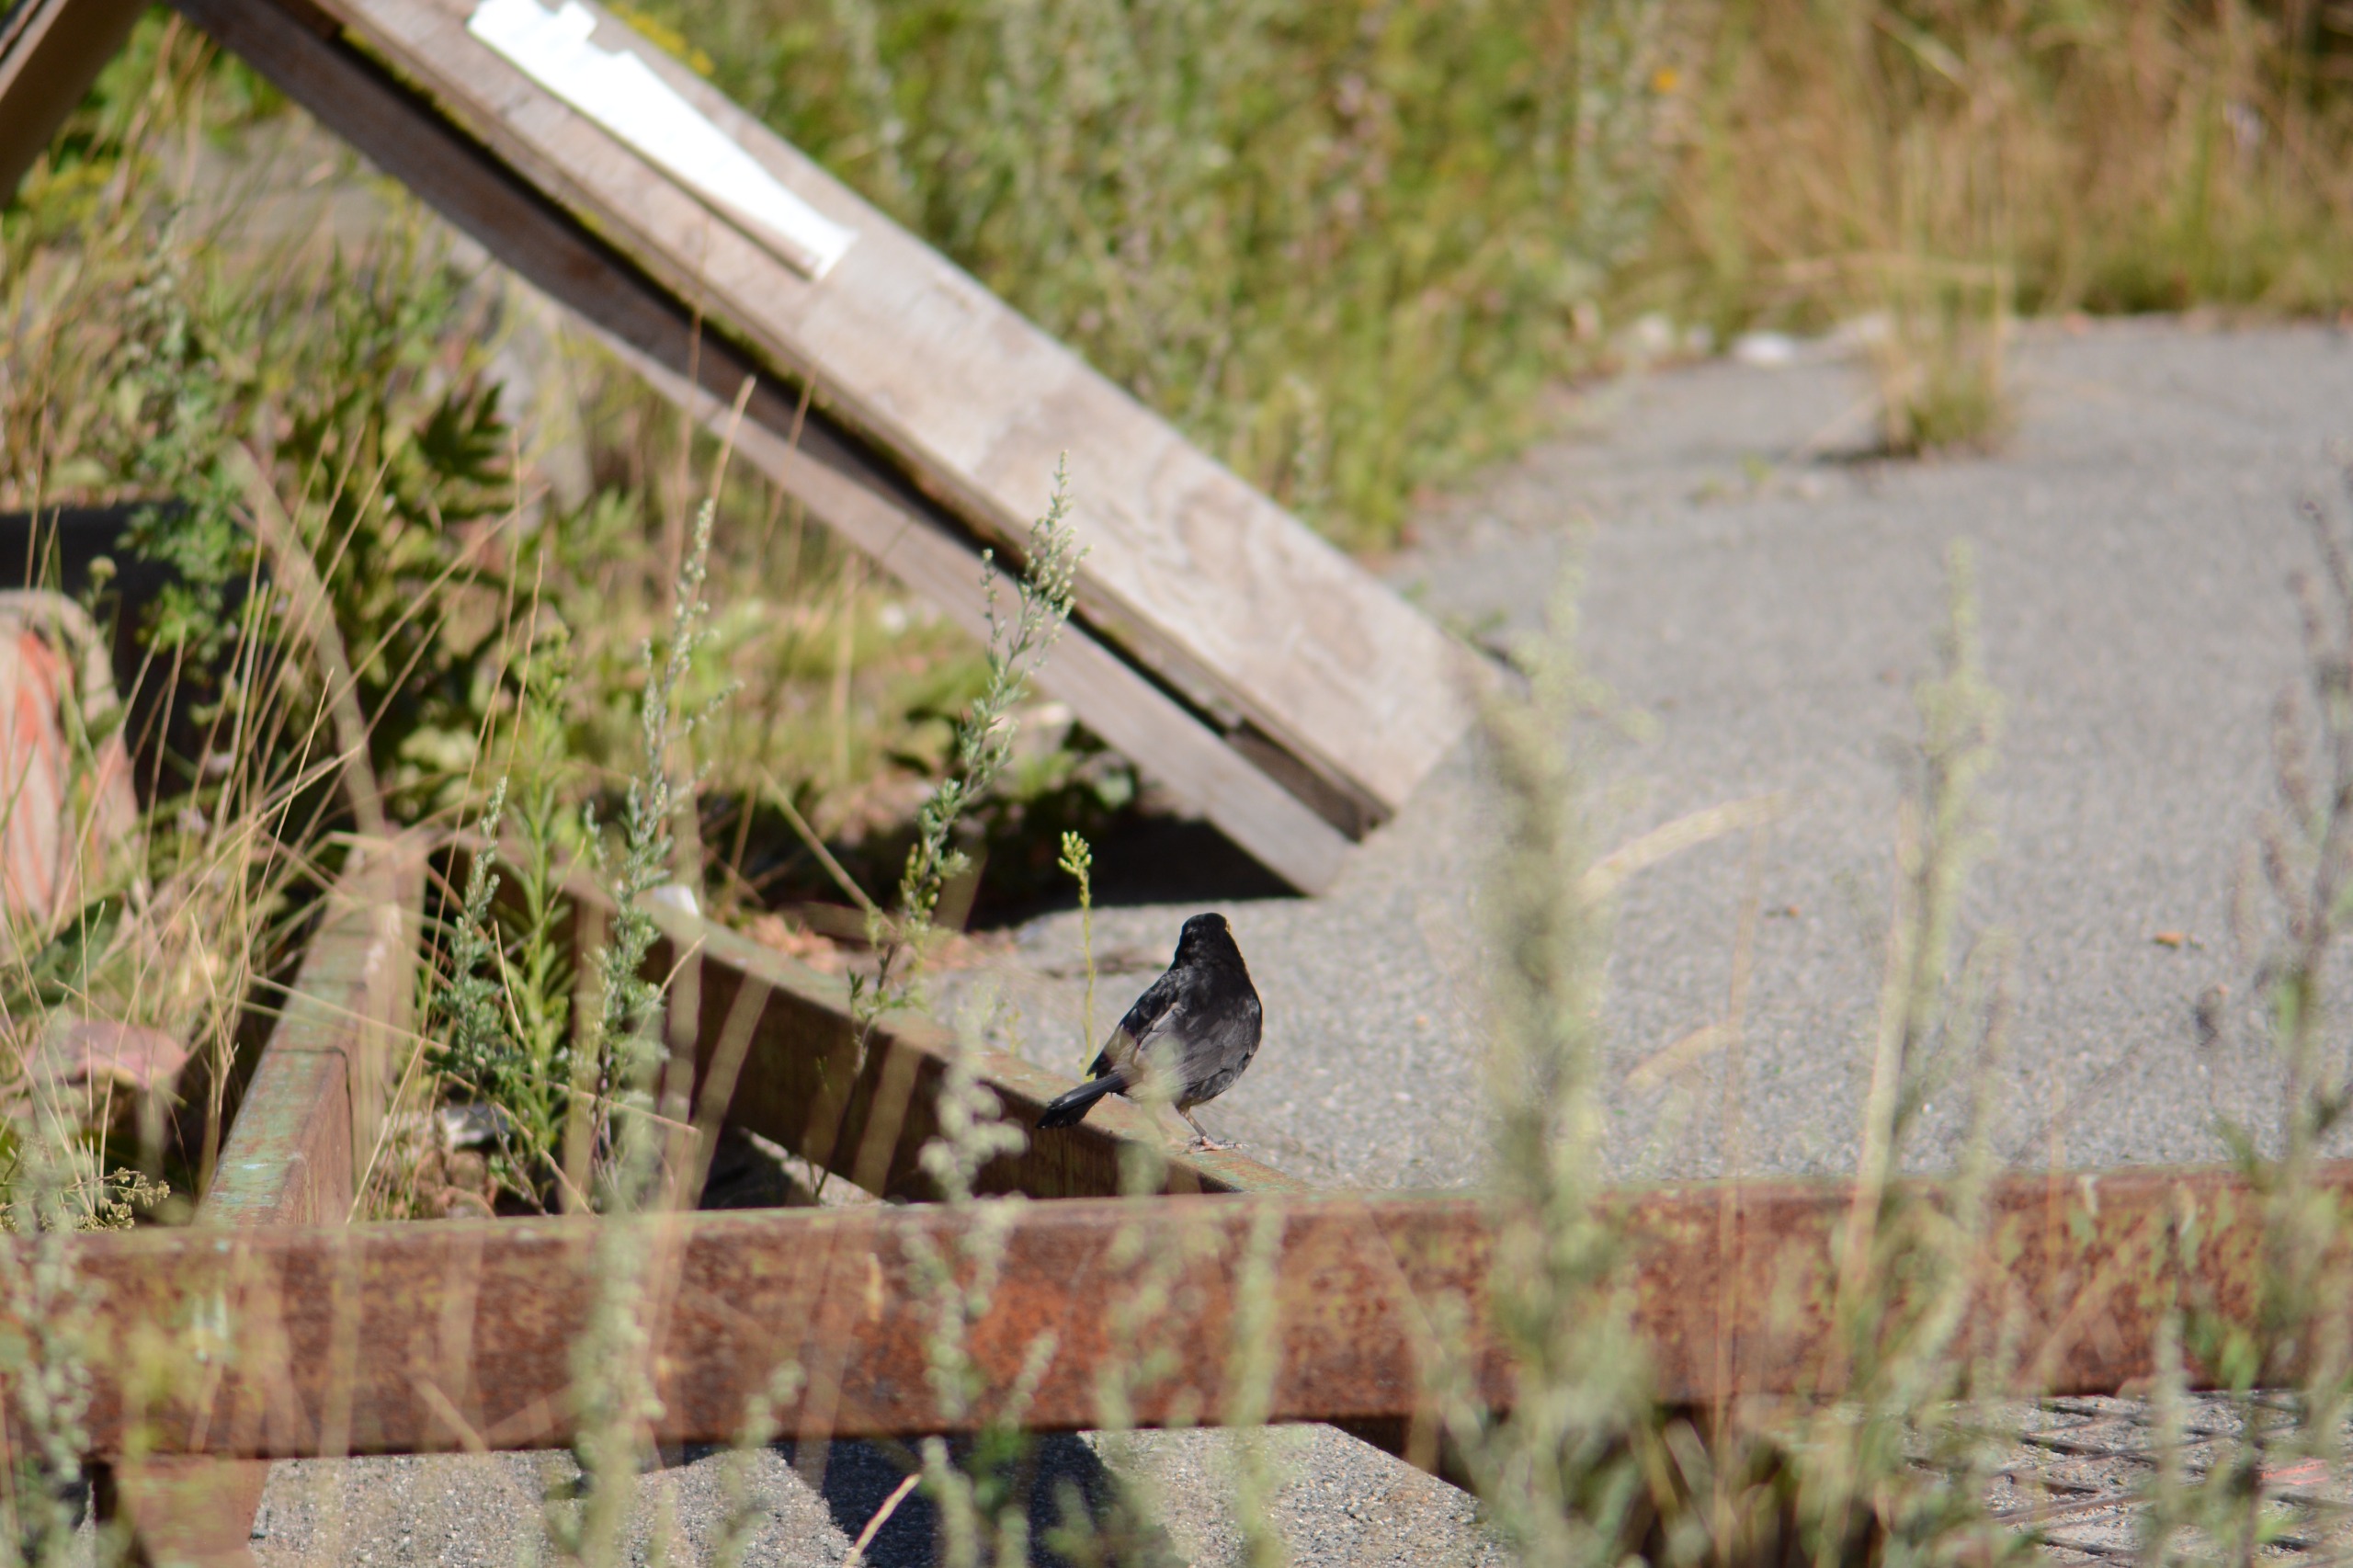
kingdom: Animalia
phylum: Chordata
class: Aves
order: Passeriformes
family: Turdidae
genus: Turdus
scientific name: Turdus merula
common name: Solsort
